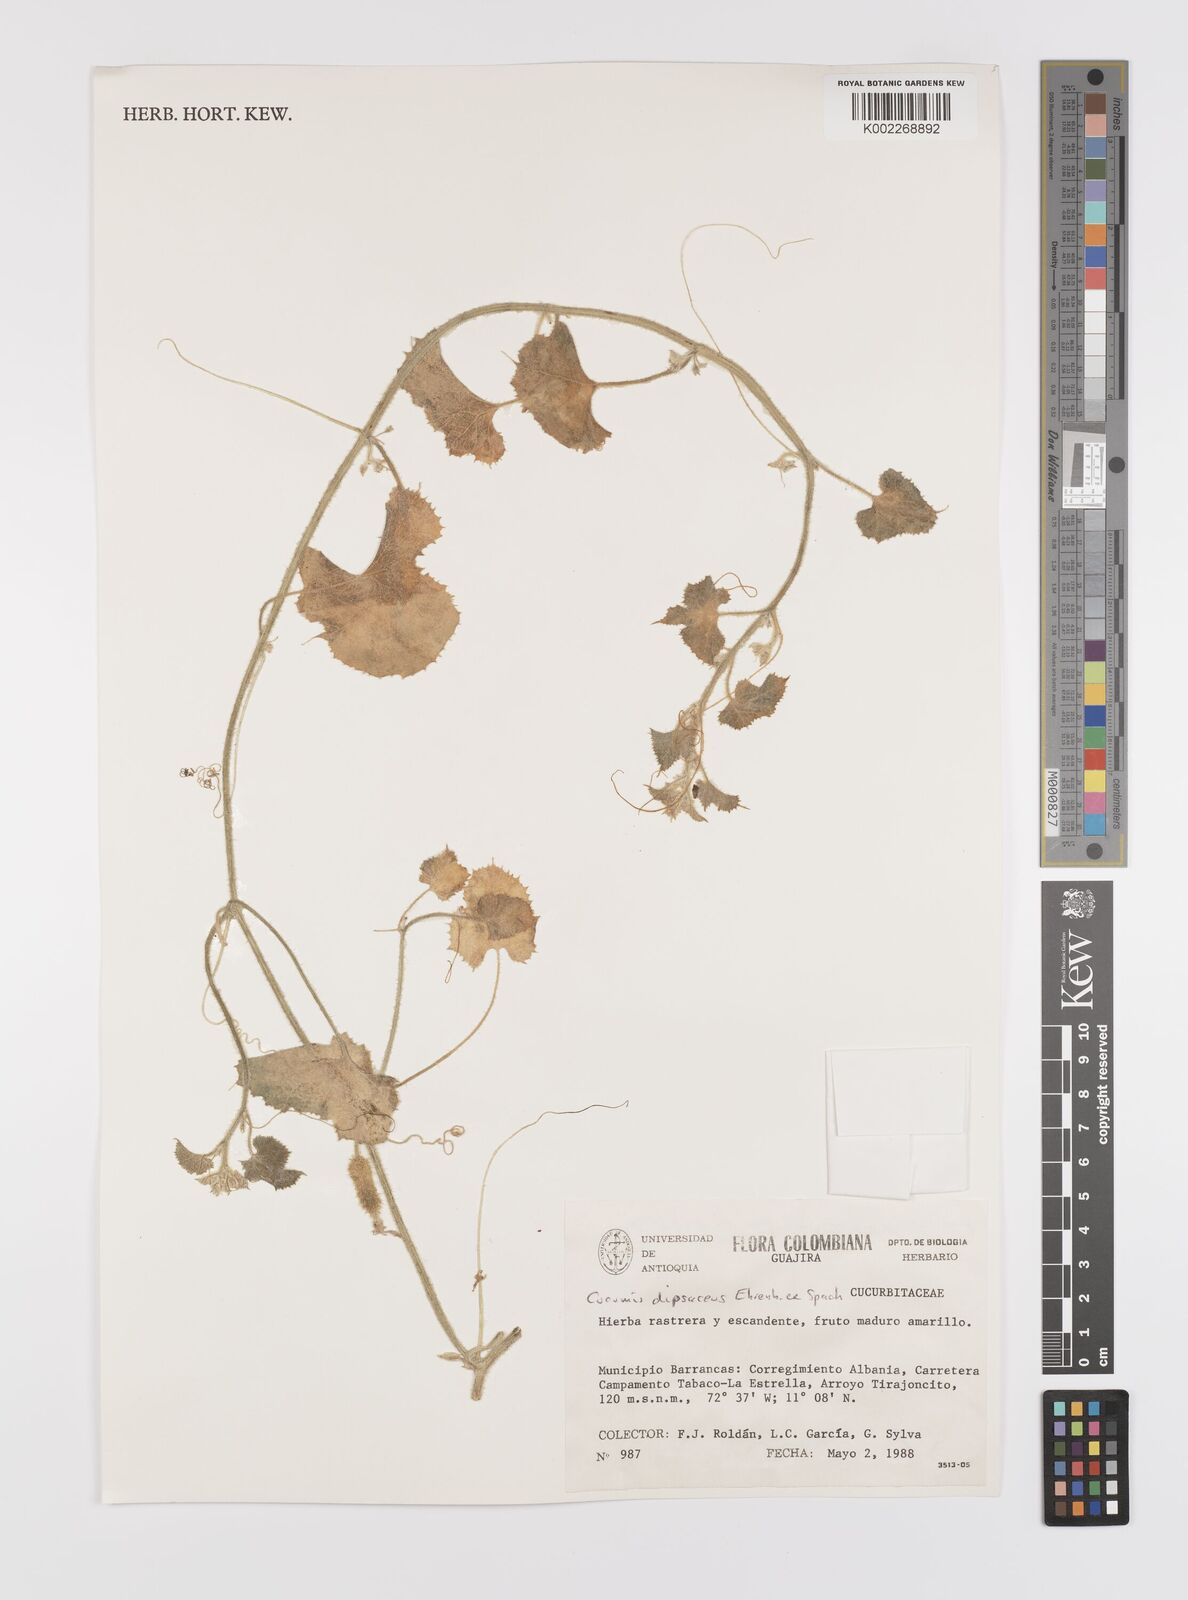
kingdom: Plantae
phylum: Tracheophyta
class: Magnoliopsida
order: Cucurbitales
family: Cucurbitaceae
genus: Cucumis
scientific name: Cucumis
